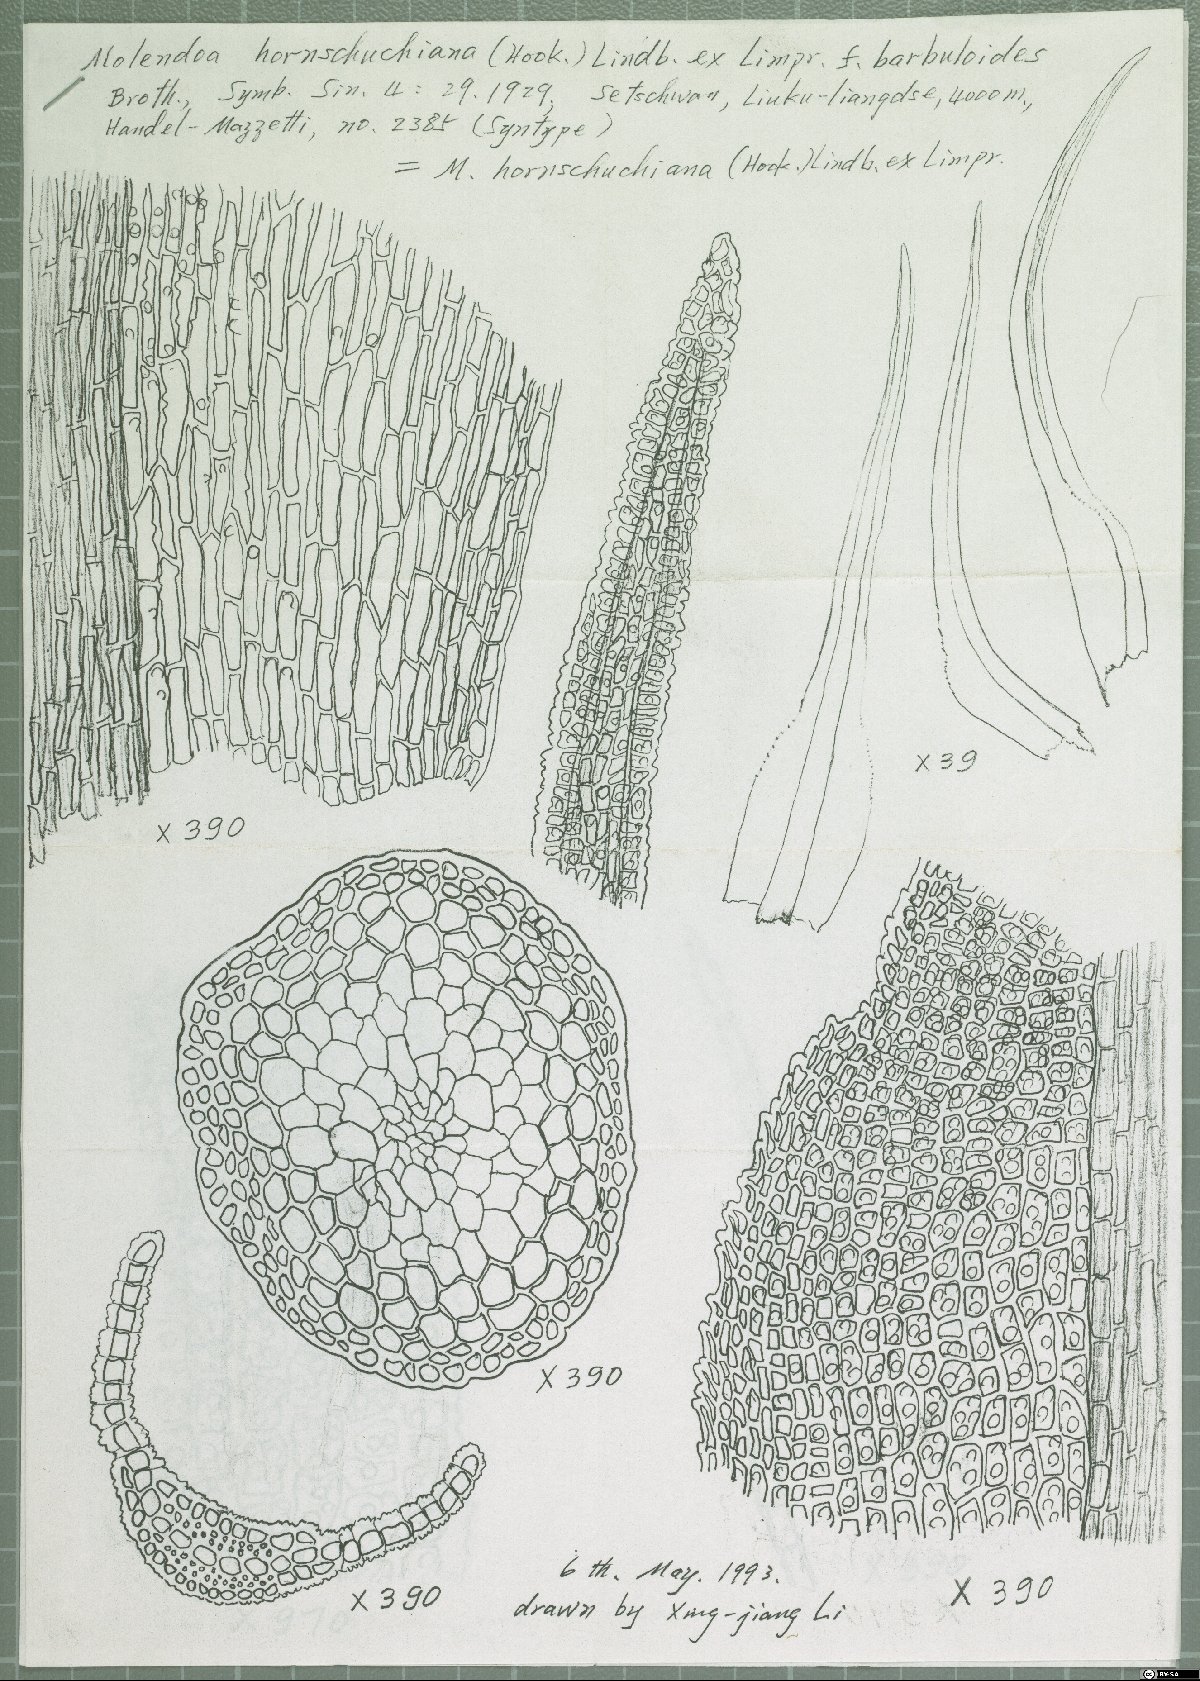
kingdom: Plantae
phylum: Bryophyta
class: Bryopsida
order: Pottiales
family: Pottiaceae
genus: Molendoa
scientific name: Molendoa hornschuchiana
